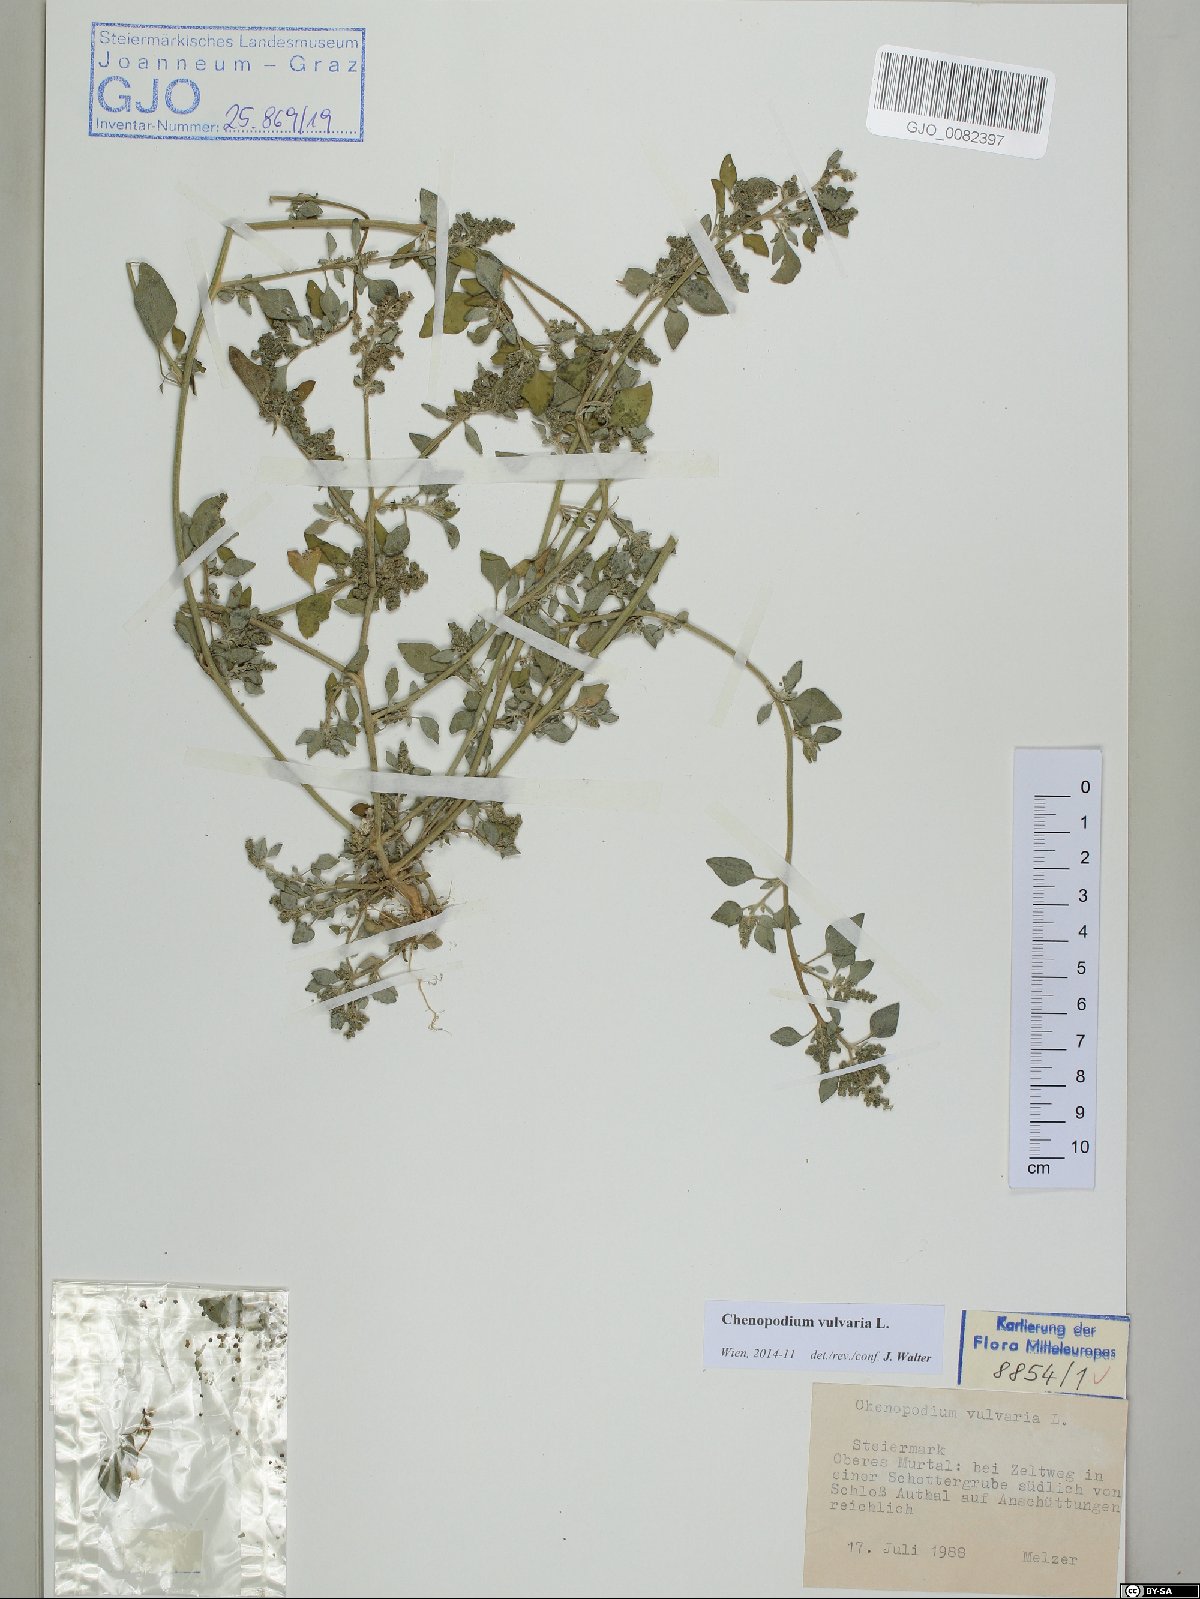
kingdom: Plantae
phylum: Tracheophyta
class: Magnoliopsida
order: Caryophyllales
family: Amaranthaceae
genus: Chenopodium
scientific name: Chenopodium vulvaria
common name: Stinking goosefoot
